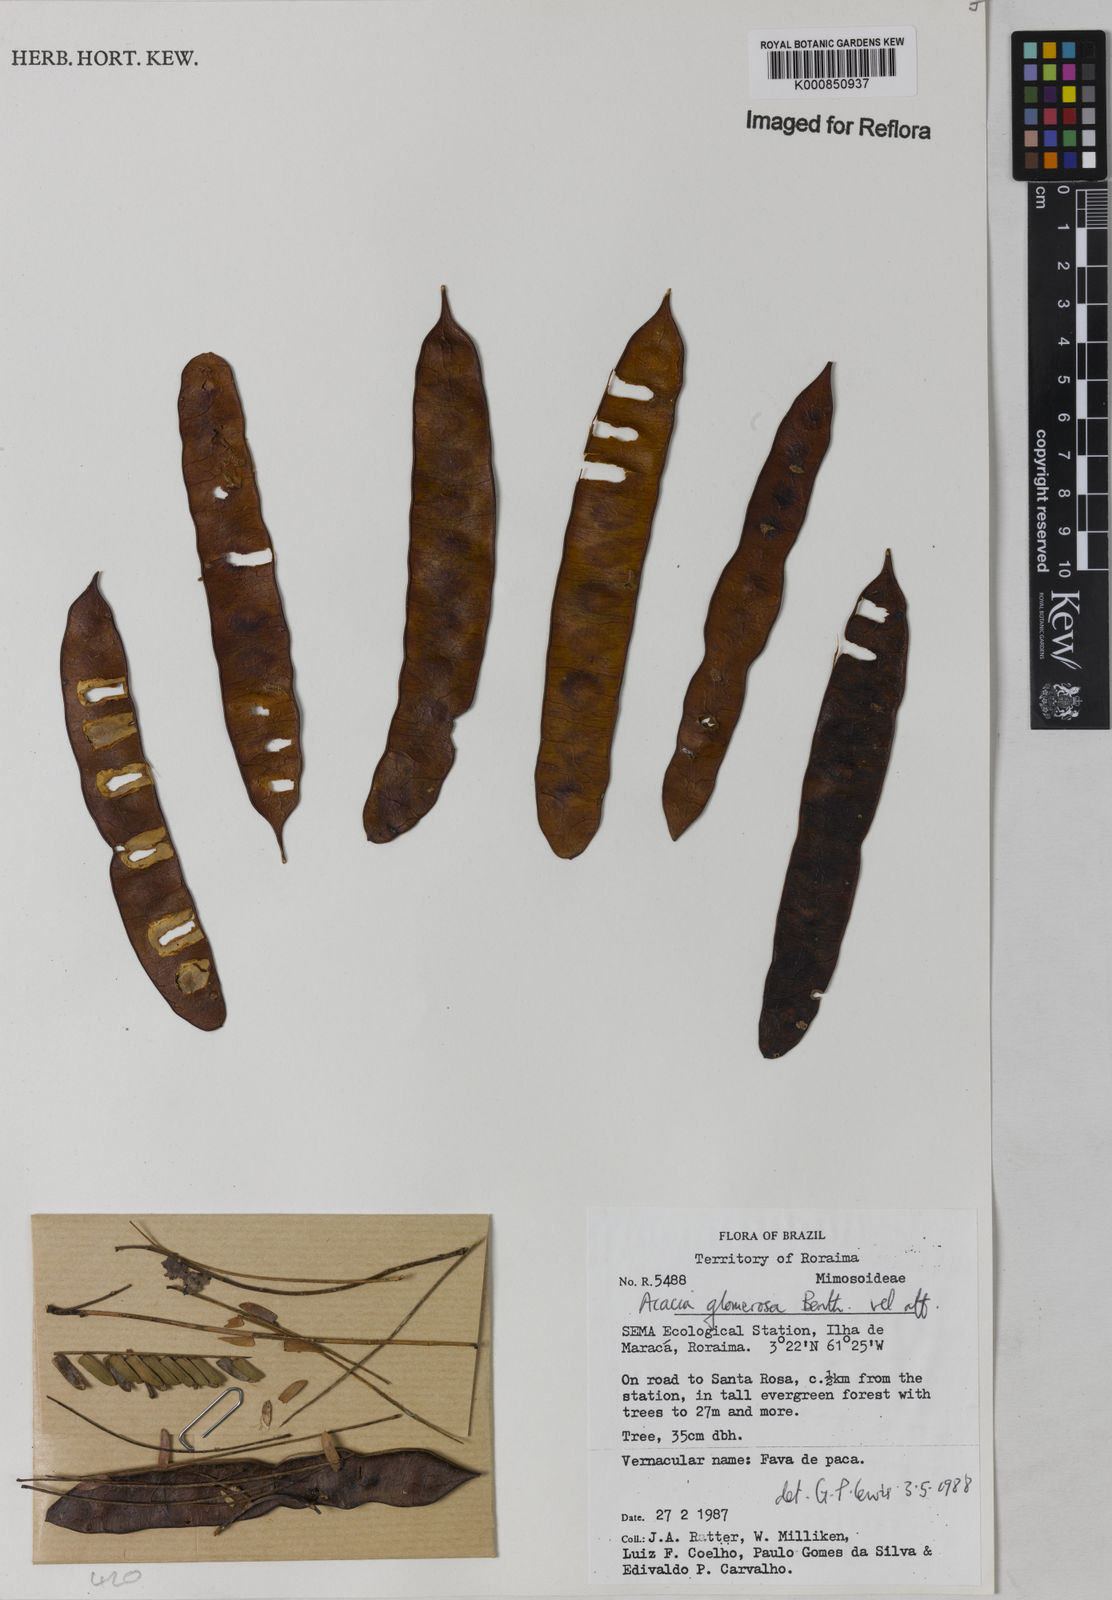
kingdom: Plantae
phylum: Tracheophyta
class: Magnoliopsida
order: Fabales
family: Fabaceae
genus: Senegalia
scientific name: Senegalia polyphylla
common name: White-tamarind
